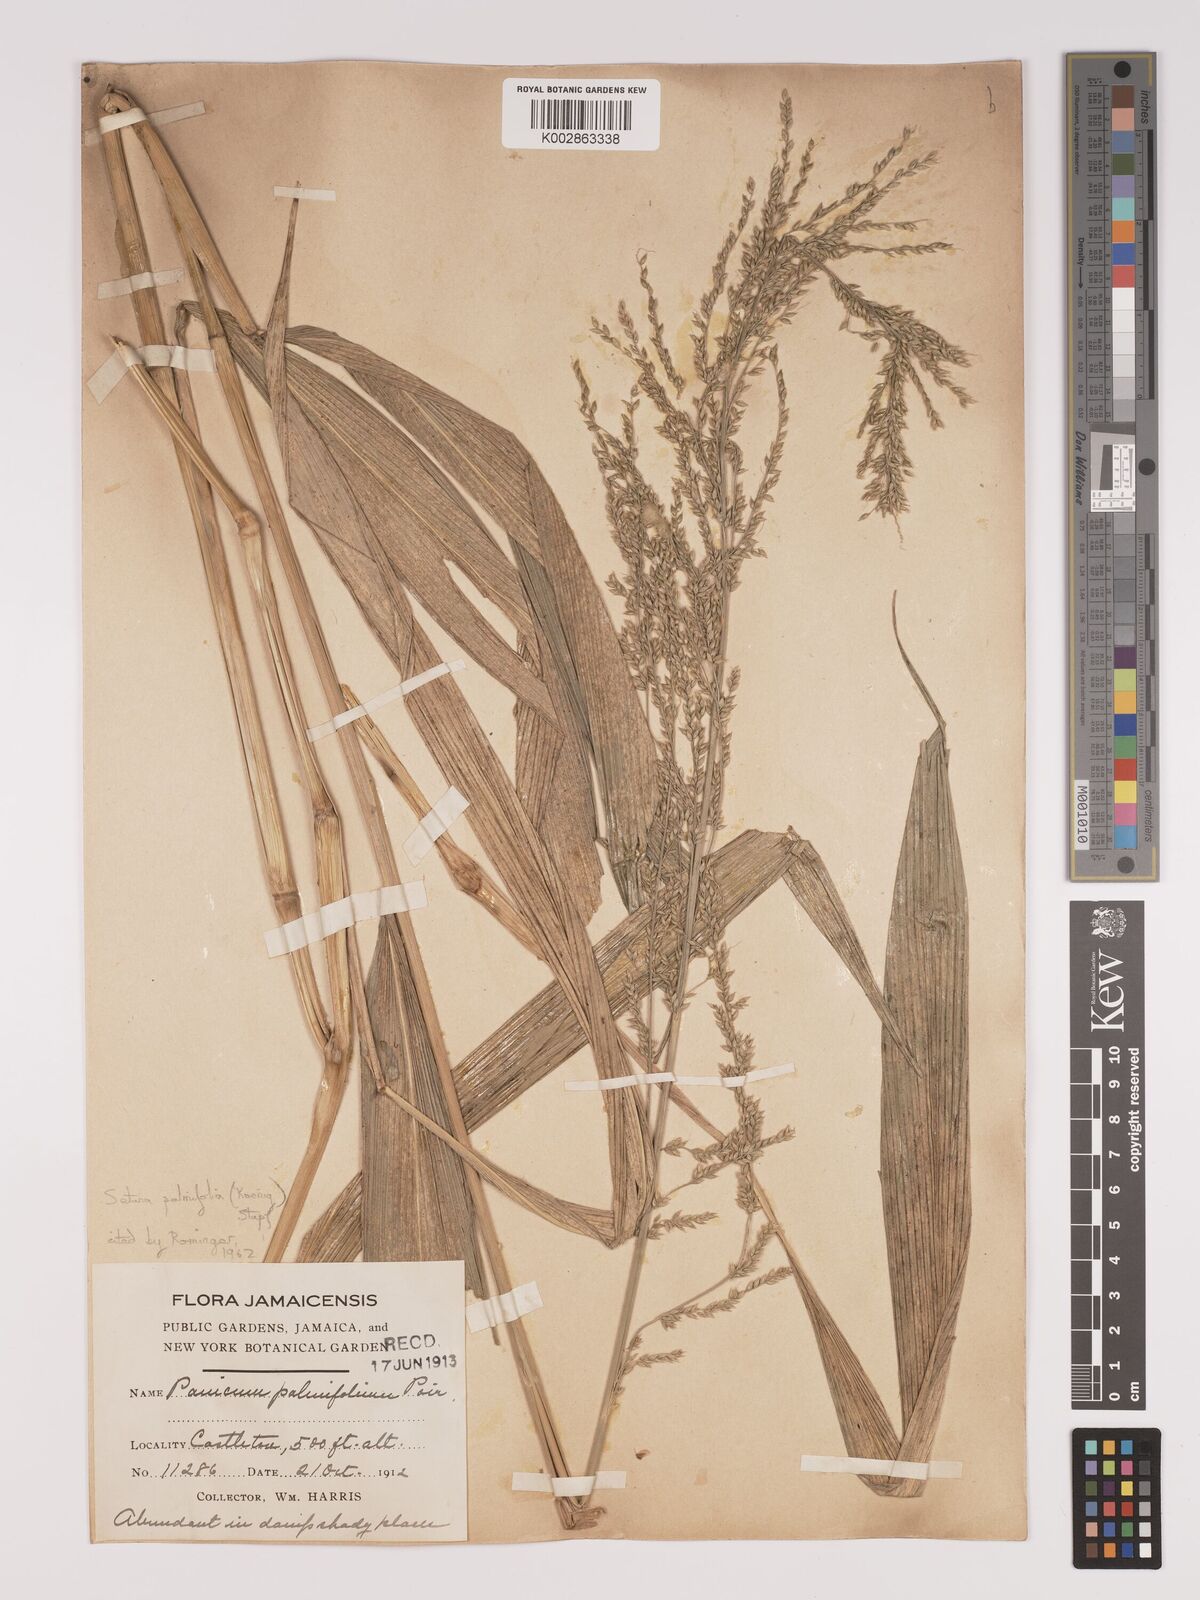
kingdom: Plantae
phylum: Tracheophyta
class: Liliopsida
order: Poales
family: Poaceae
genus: Setaria
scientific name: Setaria palmifolia
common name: Broadleaved bristlegrass
